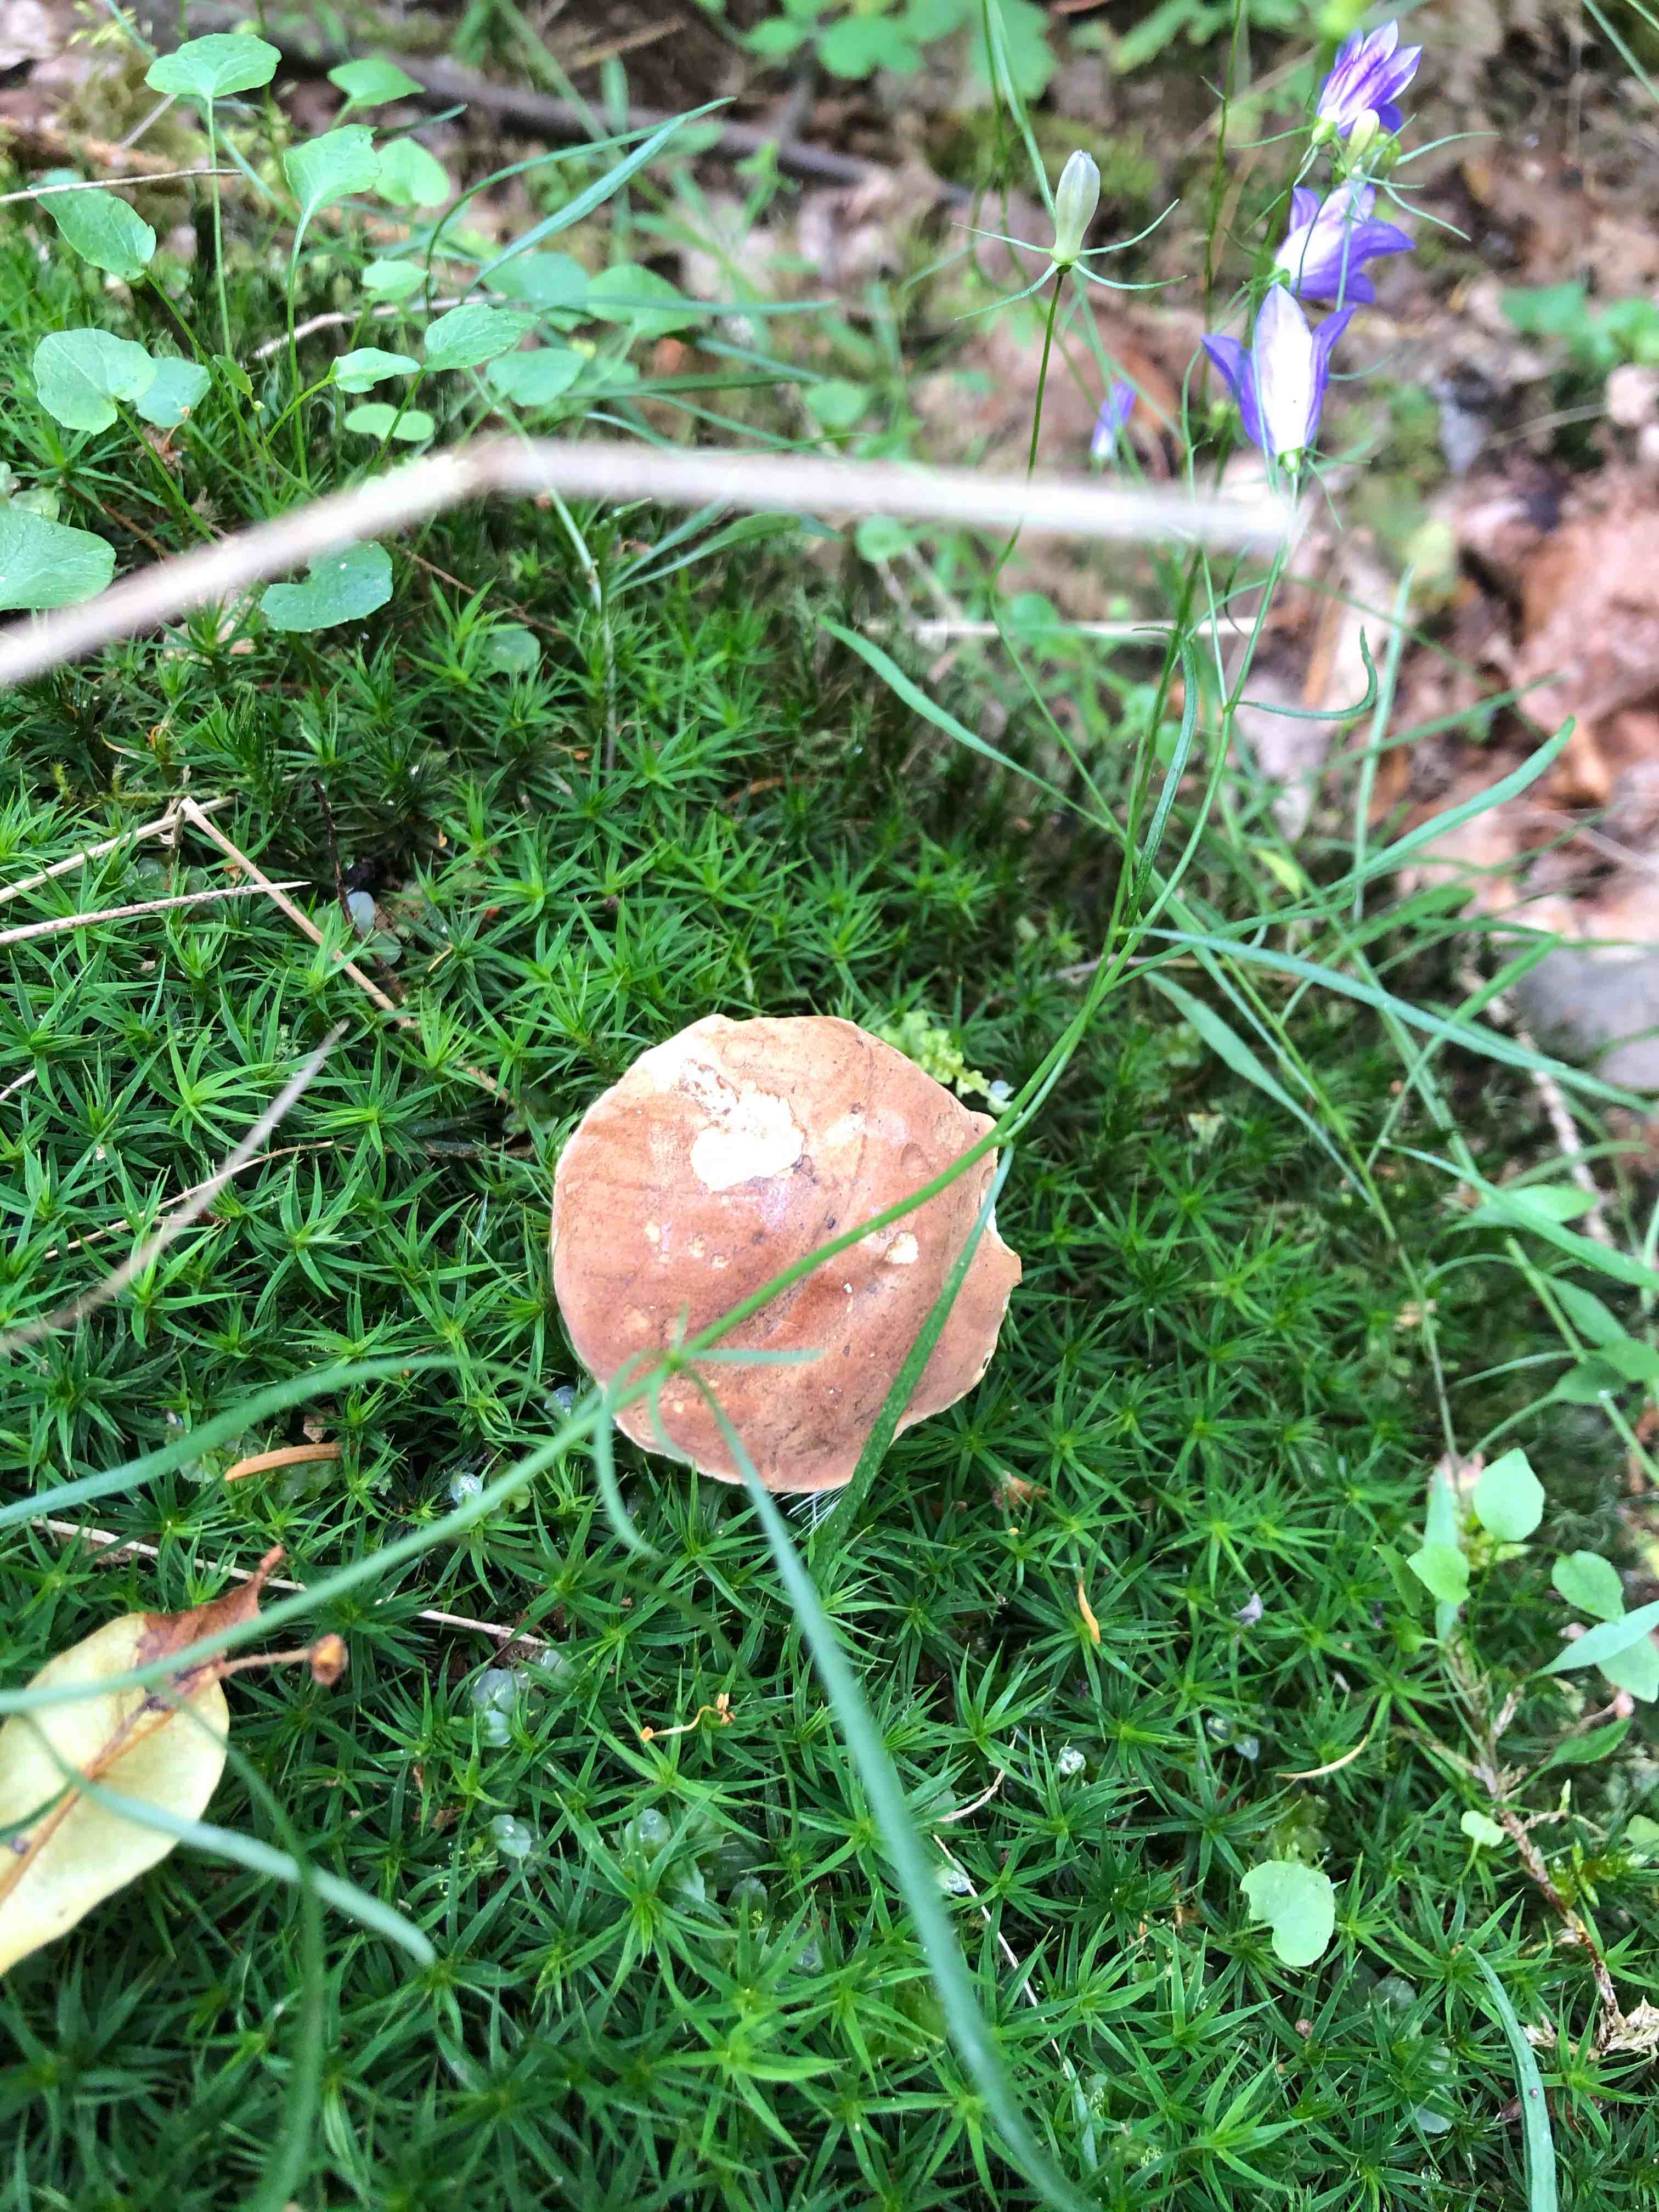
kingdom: Fungi
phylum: Basidiomycota
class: Agaricomycetes
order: Boletales
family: Boletaceae
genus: Tylopilus
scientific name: Tylopilus felleus
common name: galderørhat
